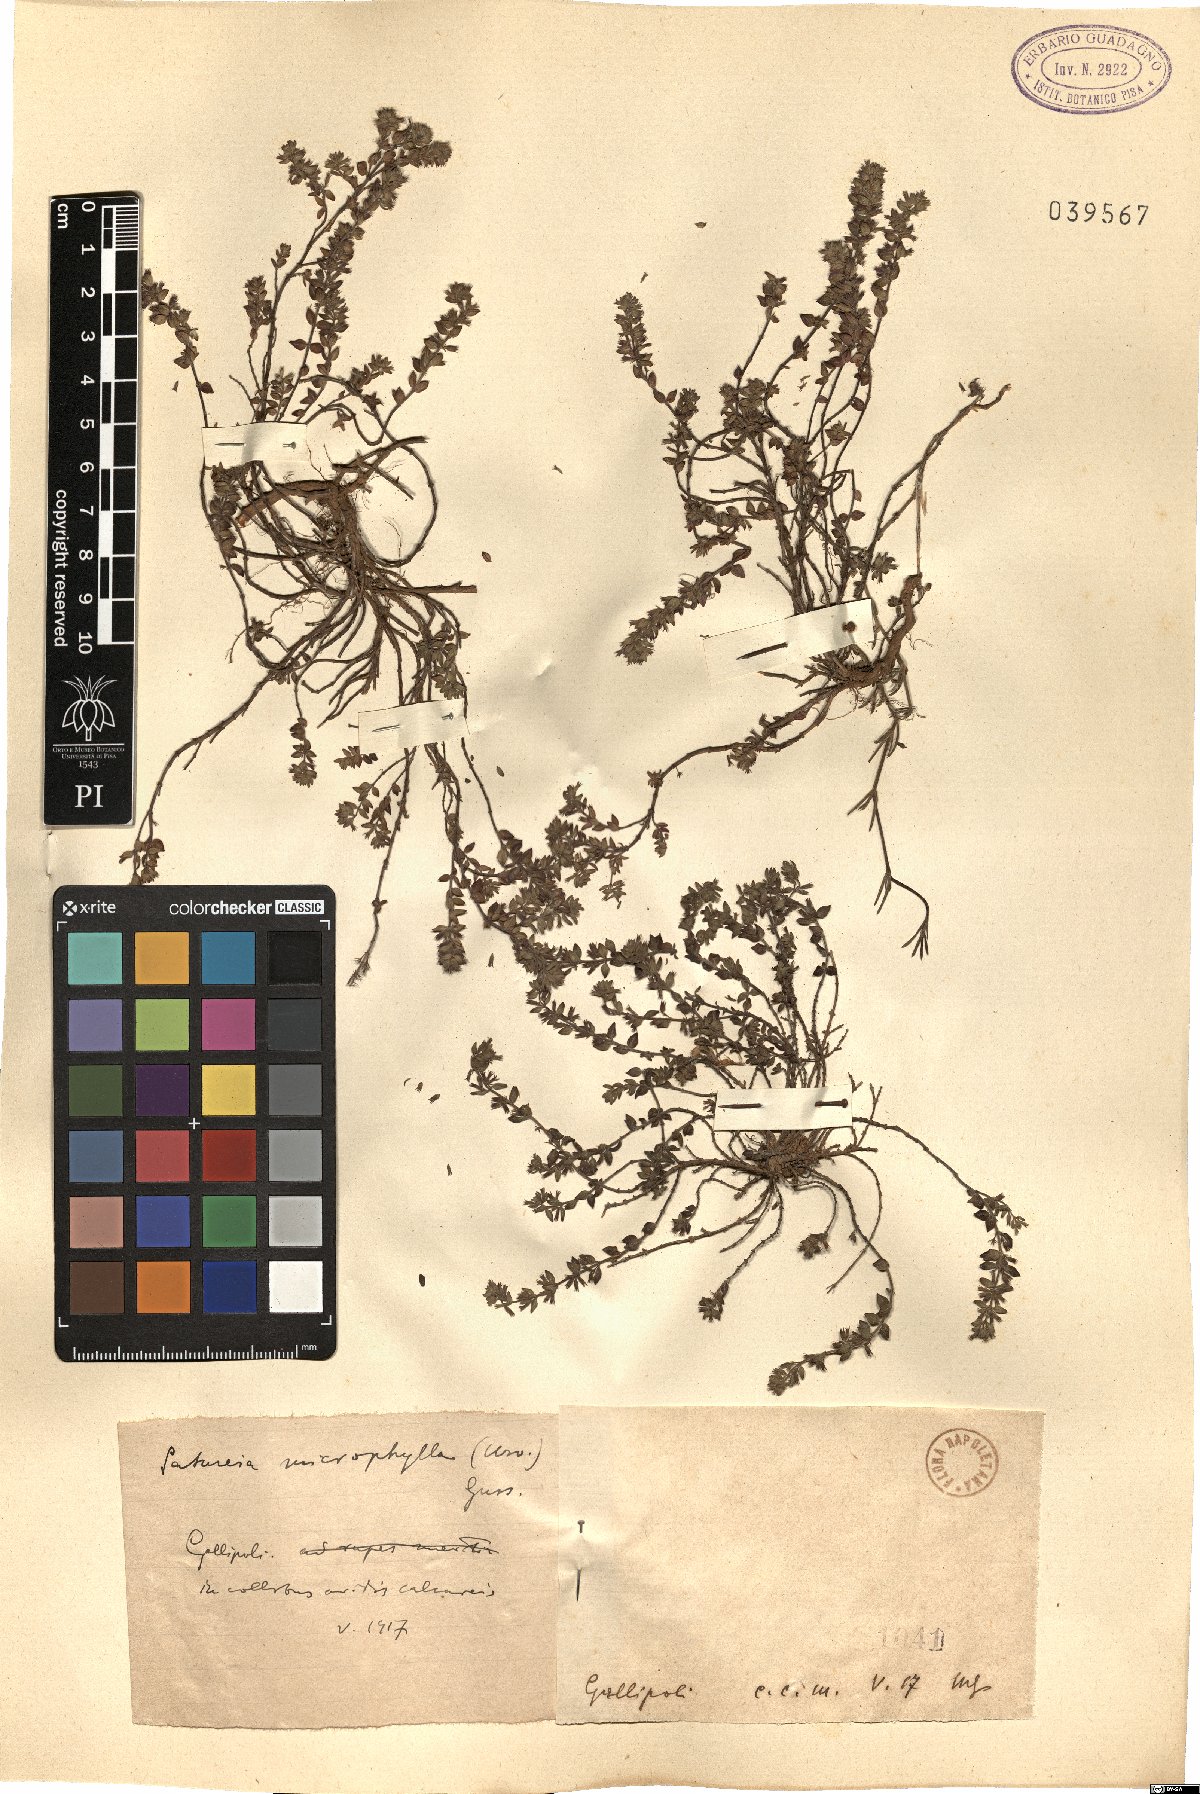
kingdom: Plantae
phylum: Tracheophyta
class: Magnoliopsida
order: Lamiales
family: Lamiaceae
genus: Micromeria
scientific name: Micromeria microphylla
